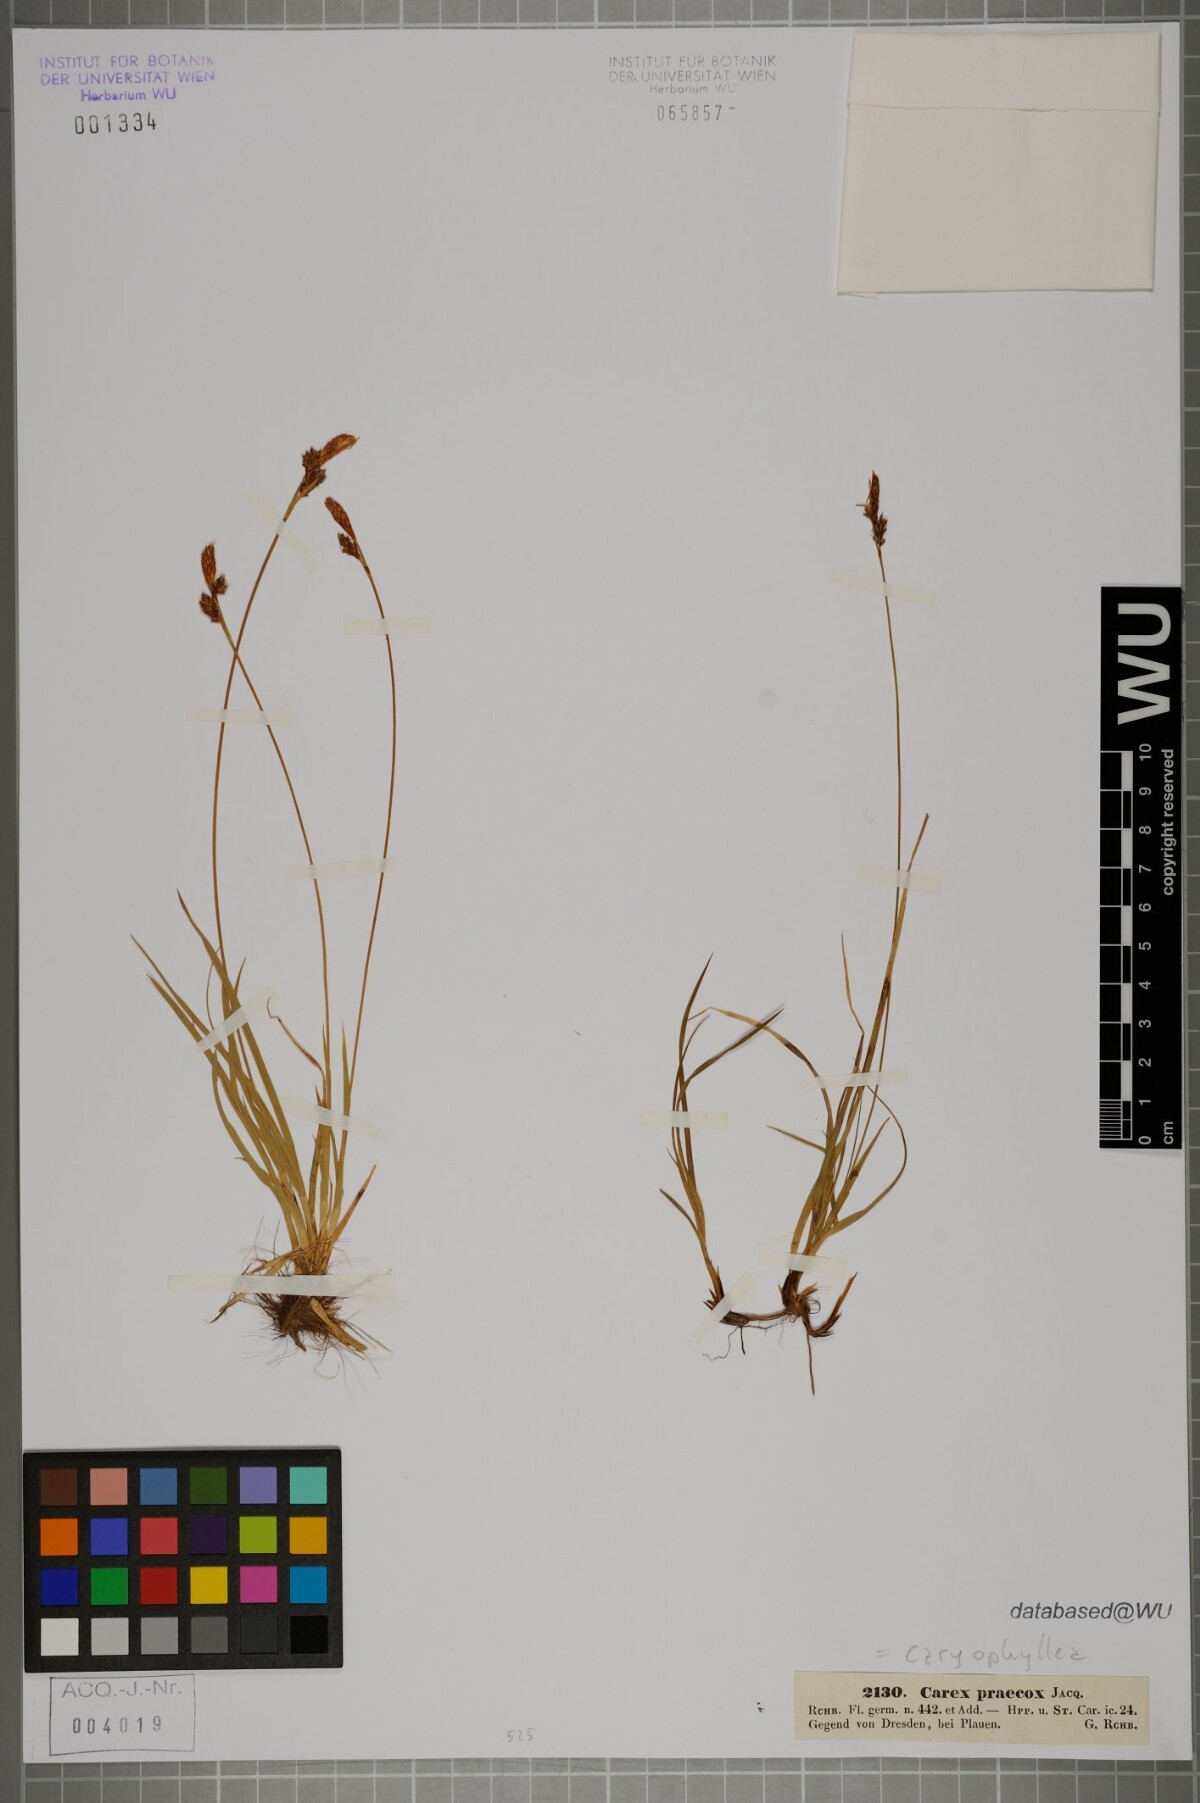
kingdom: Plantae
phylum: Tracheophyta
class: Liliopsida
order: Poales
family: Cyperaceae
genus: Carex
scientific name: Carex caryophyllea
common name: Spring sedge
